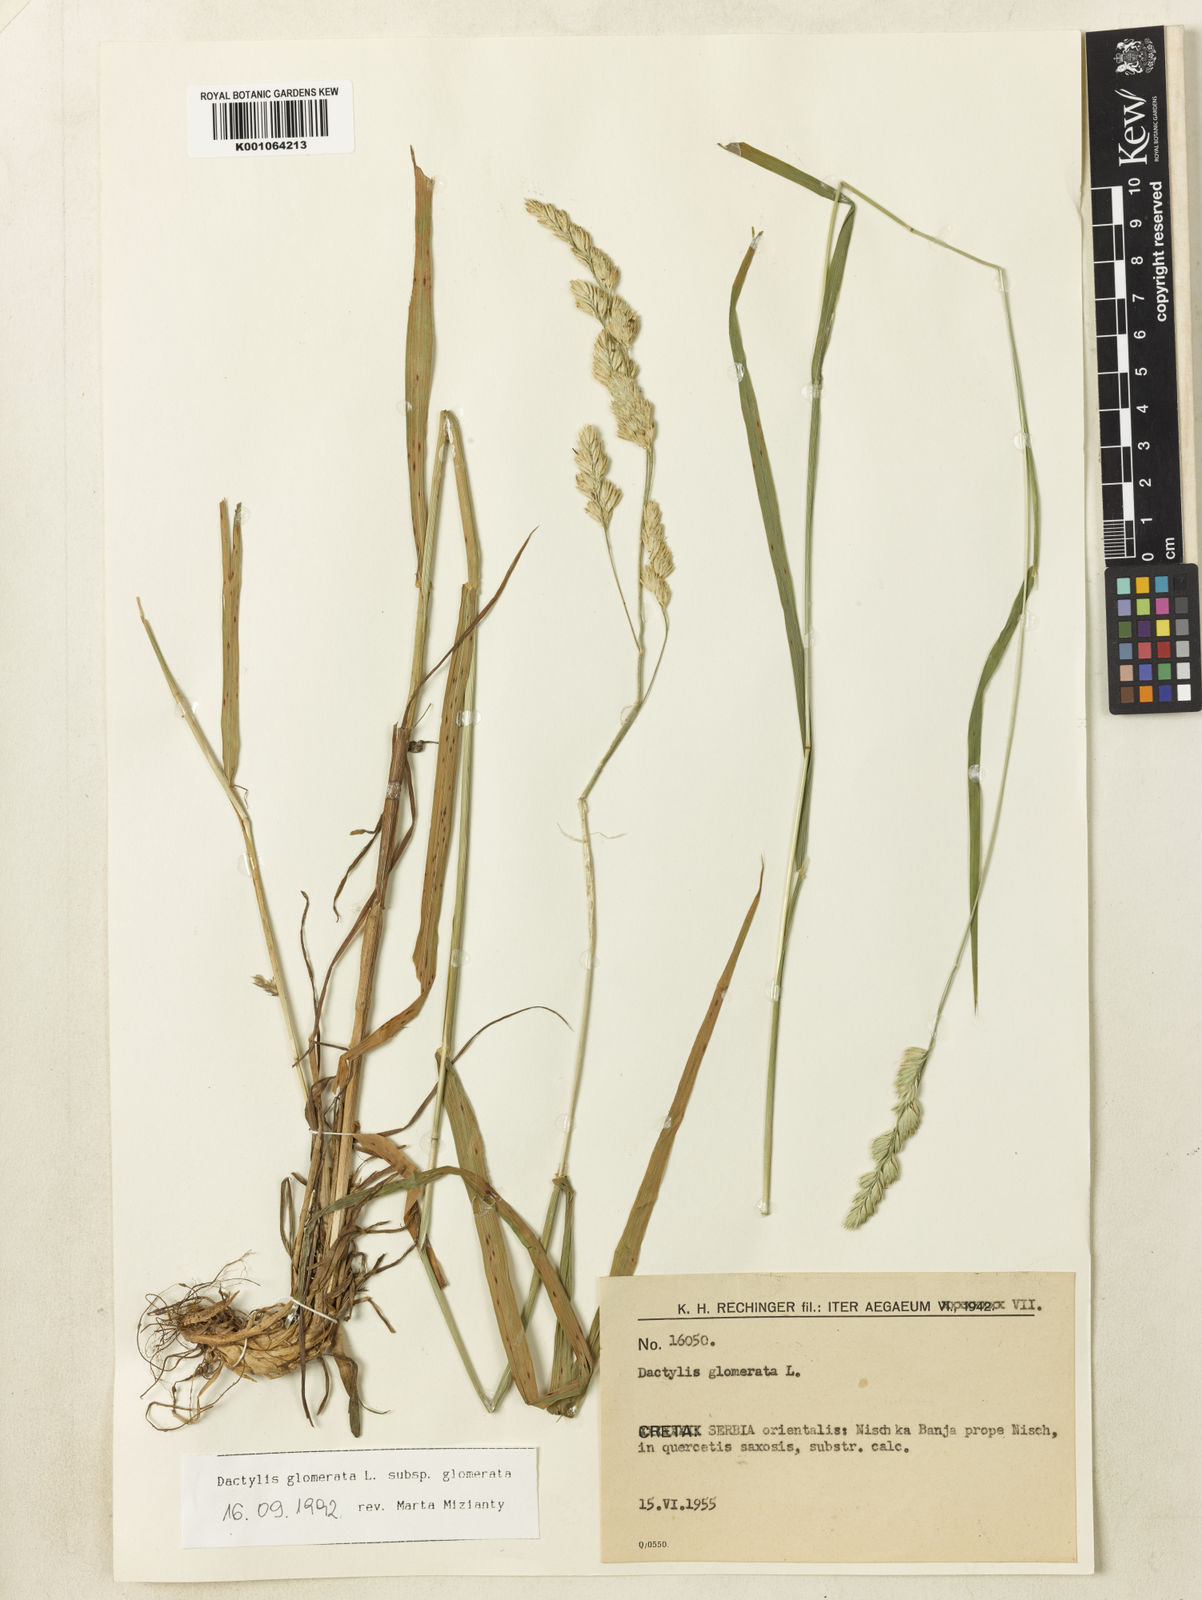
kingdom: Plantae
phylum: Tracheophyta
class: Liliopsida
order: Poales
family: Poaceae
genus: Dactylis
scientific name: Dactylis glomerata
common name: Orchardgrass
